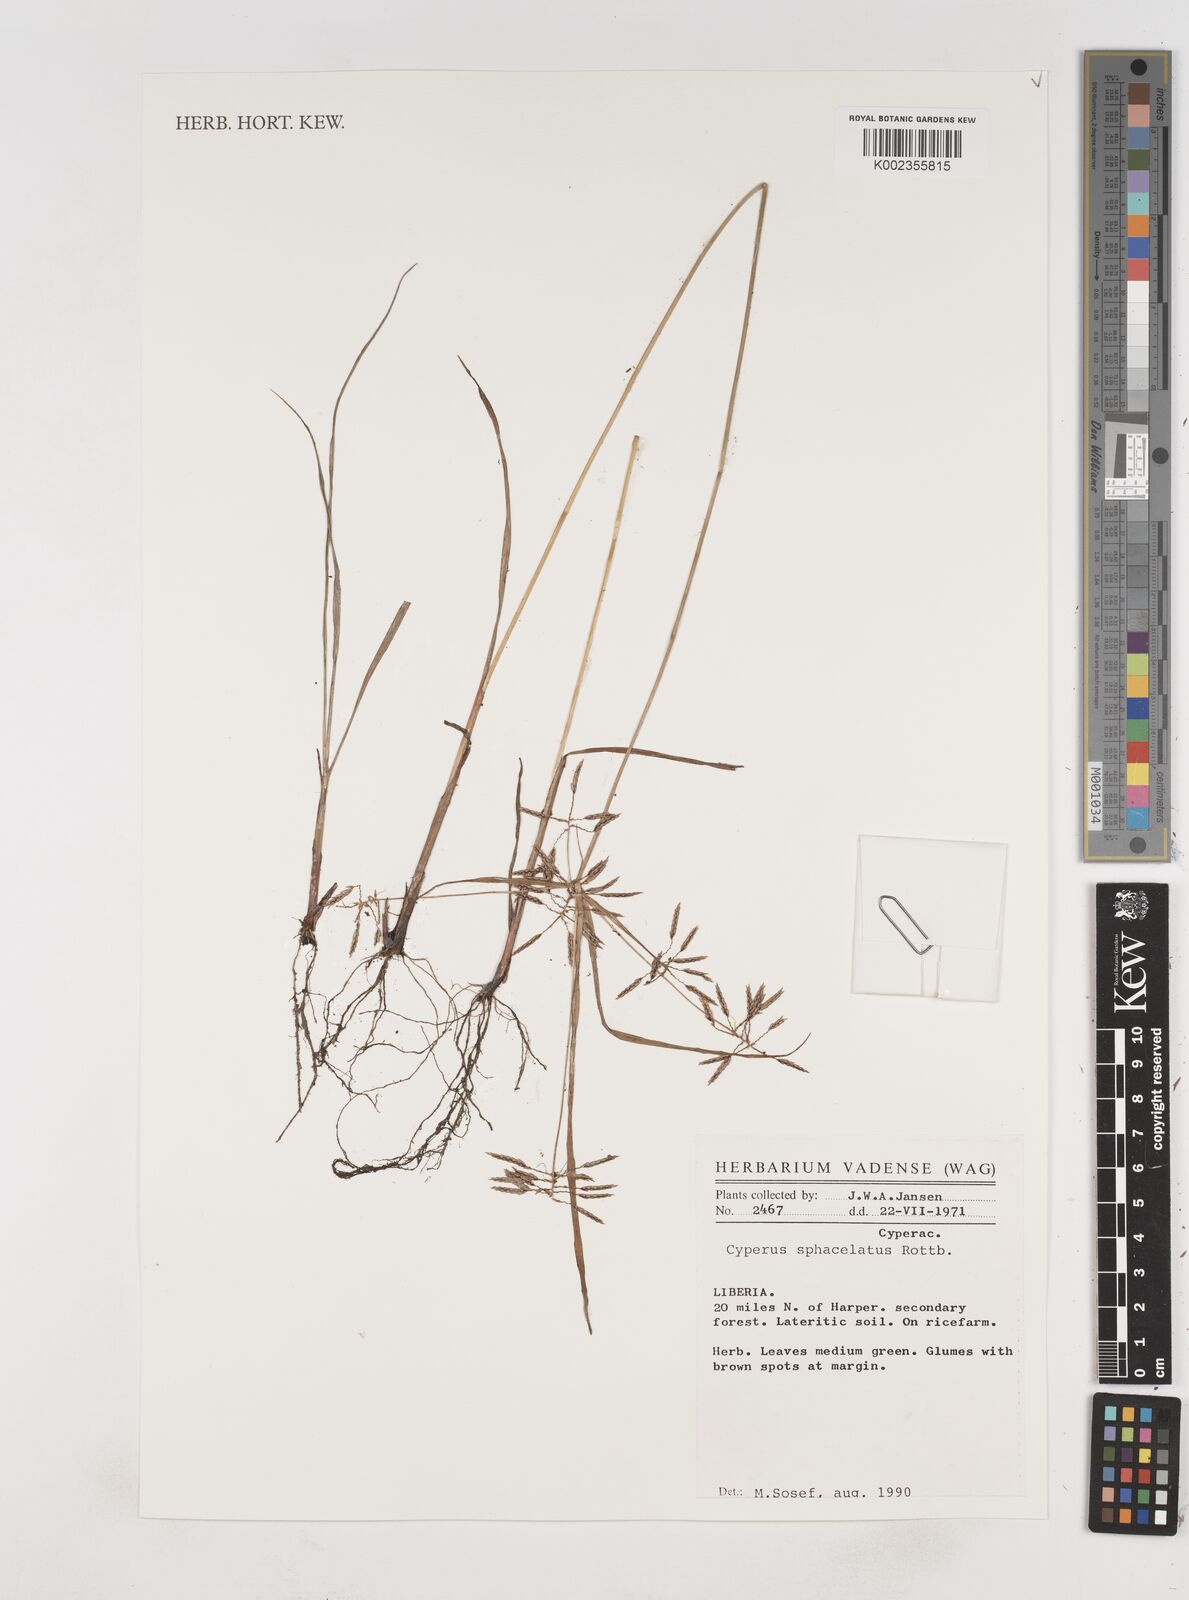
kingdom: Plantae
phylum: Tracheophyta
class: Liliopsida
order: Poales
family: Cyperaceae
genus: Cyperus
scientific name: Cyperus sphacelatus
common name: Roadside flatsedge
